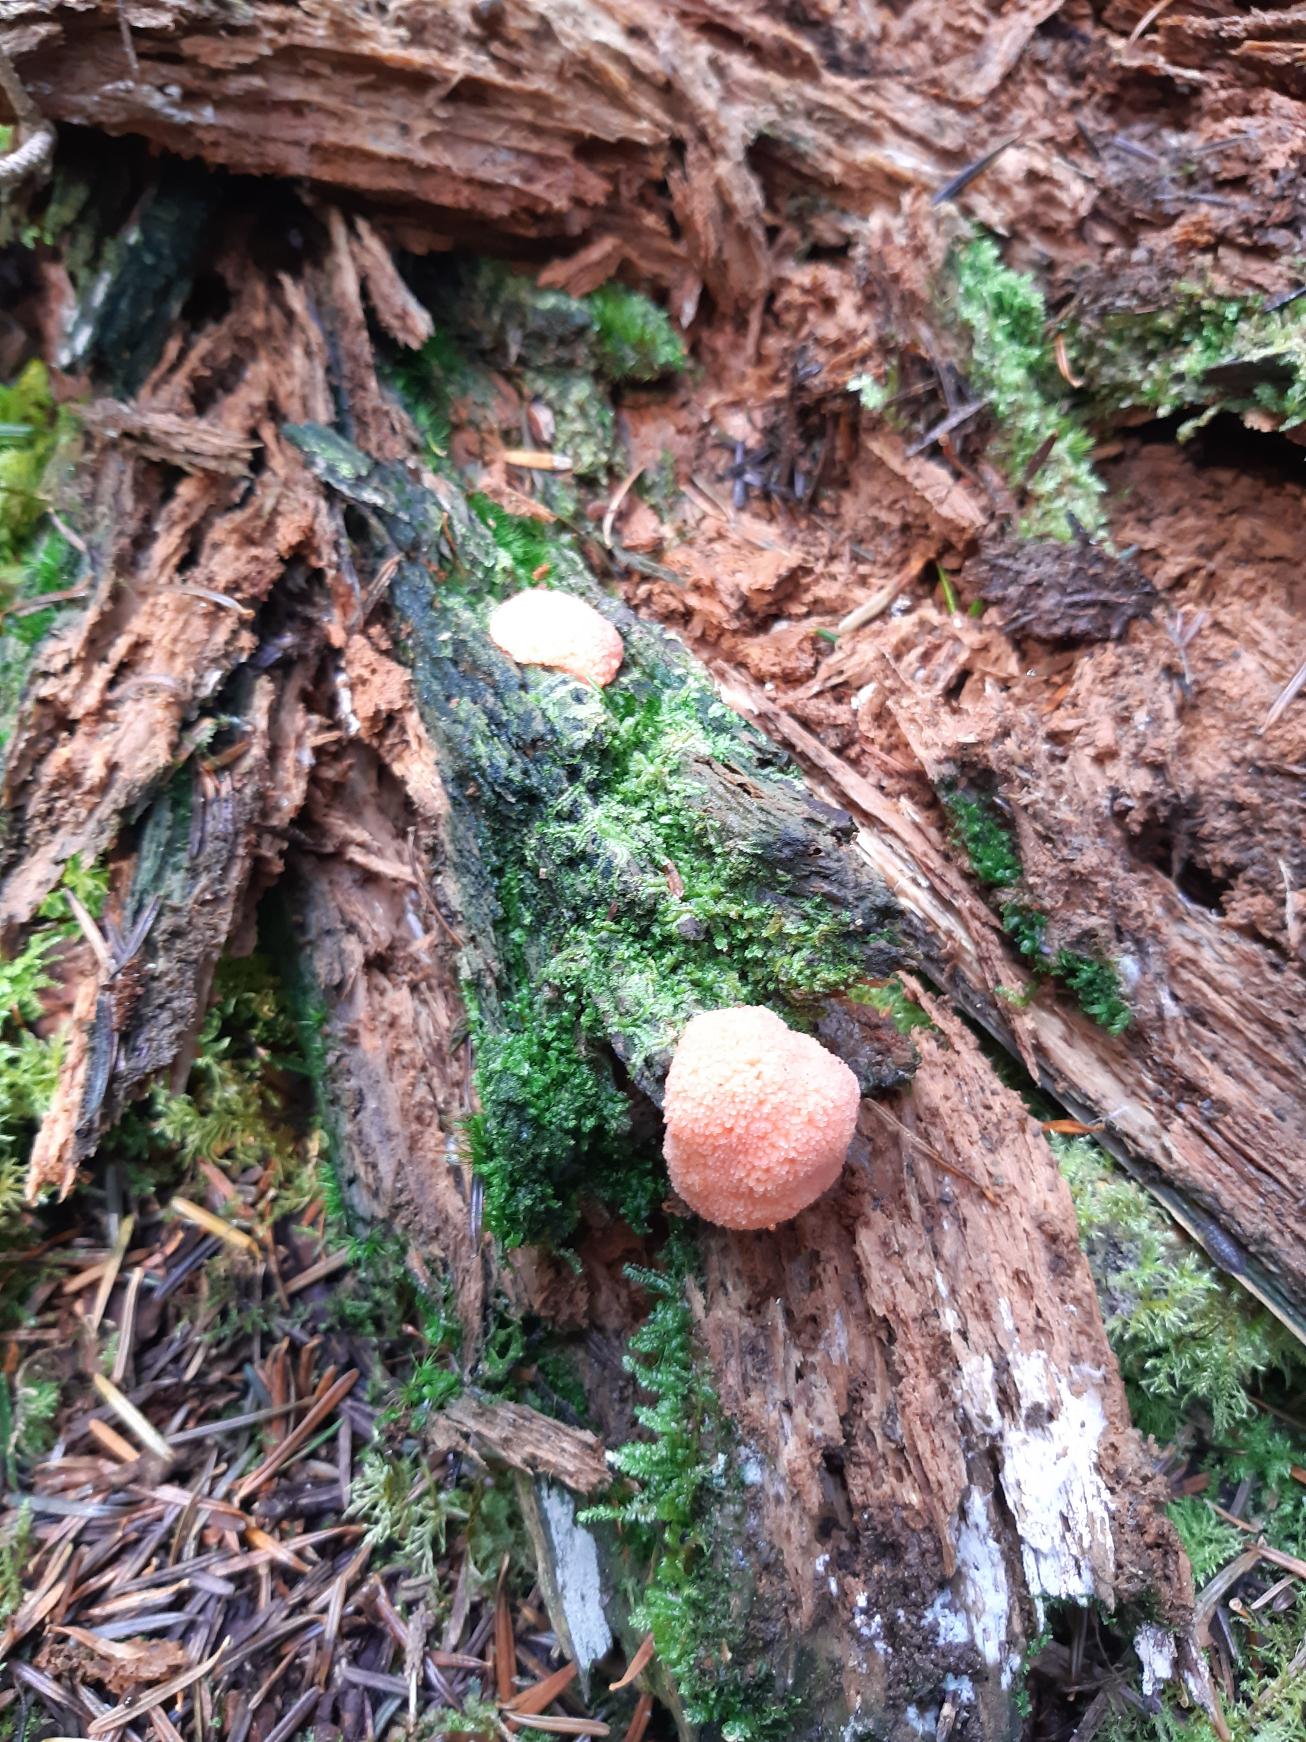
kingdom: Protozoa
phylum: Mycetozoa
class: Myxomycetes
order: Cribrariales
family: Tubiferaceae
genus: Tubifera
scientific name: Tubifera ferruginosa
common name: Kanel-støvrør
